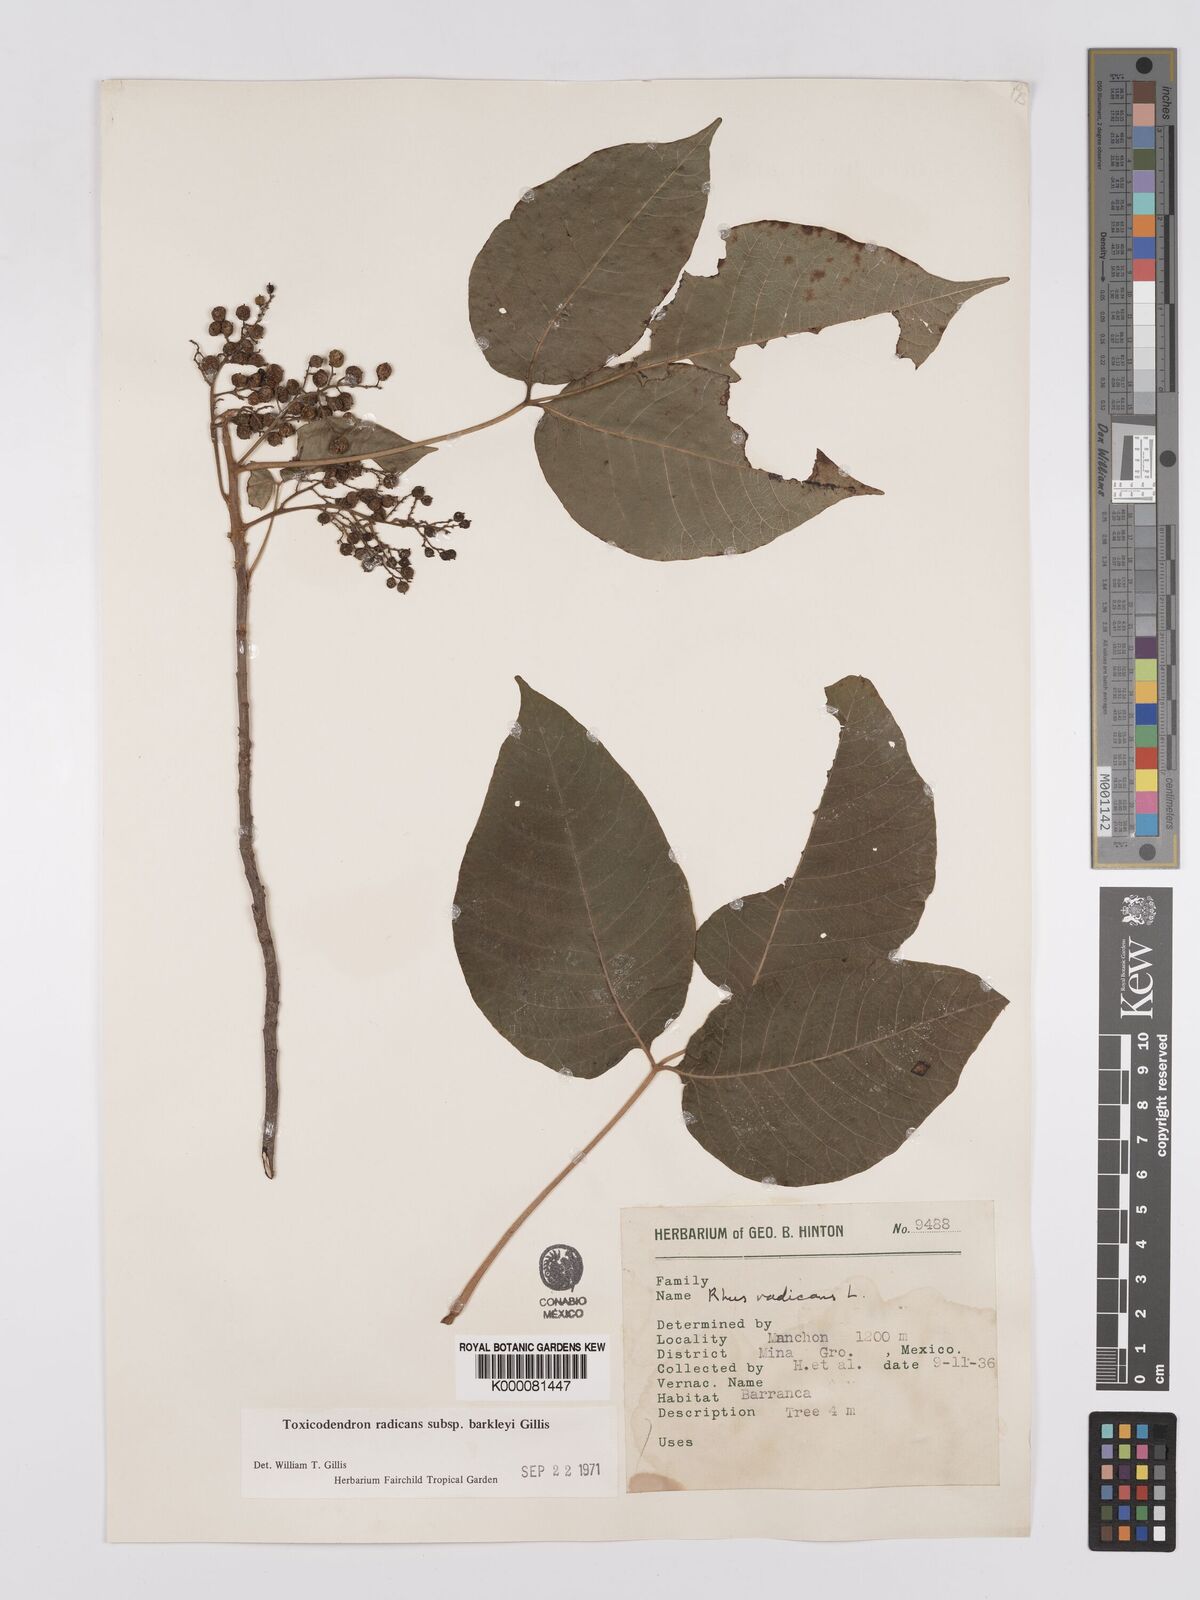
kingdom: Plantae
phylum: Tracheophyta
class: Magnoliopsida
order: Sapindales
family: Anacardiaceae
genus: Toxicodendron
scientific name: Toxicodendron radicans
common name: Poison ivy
